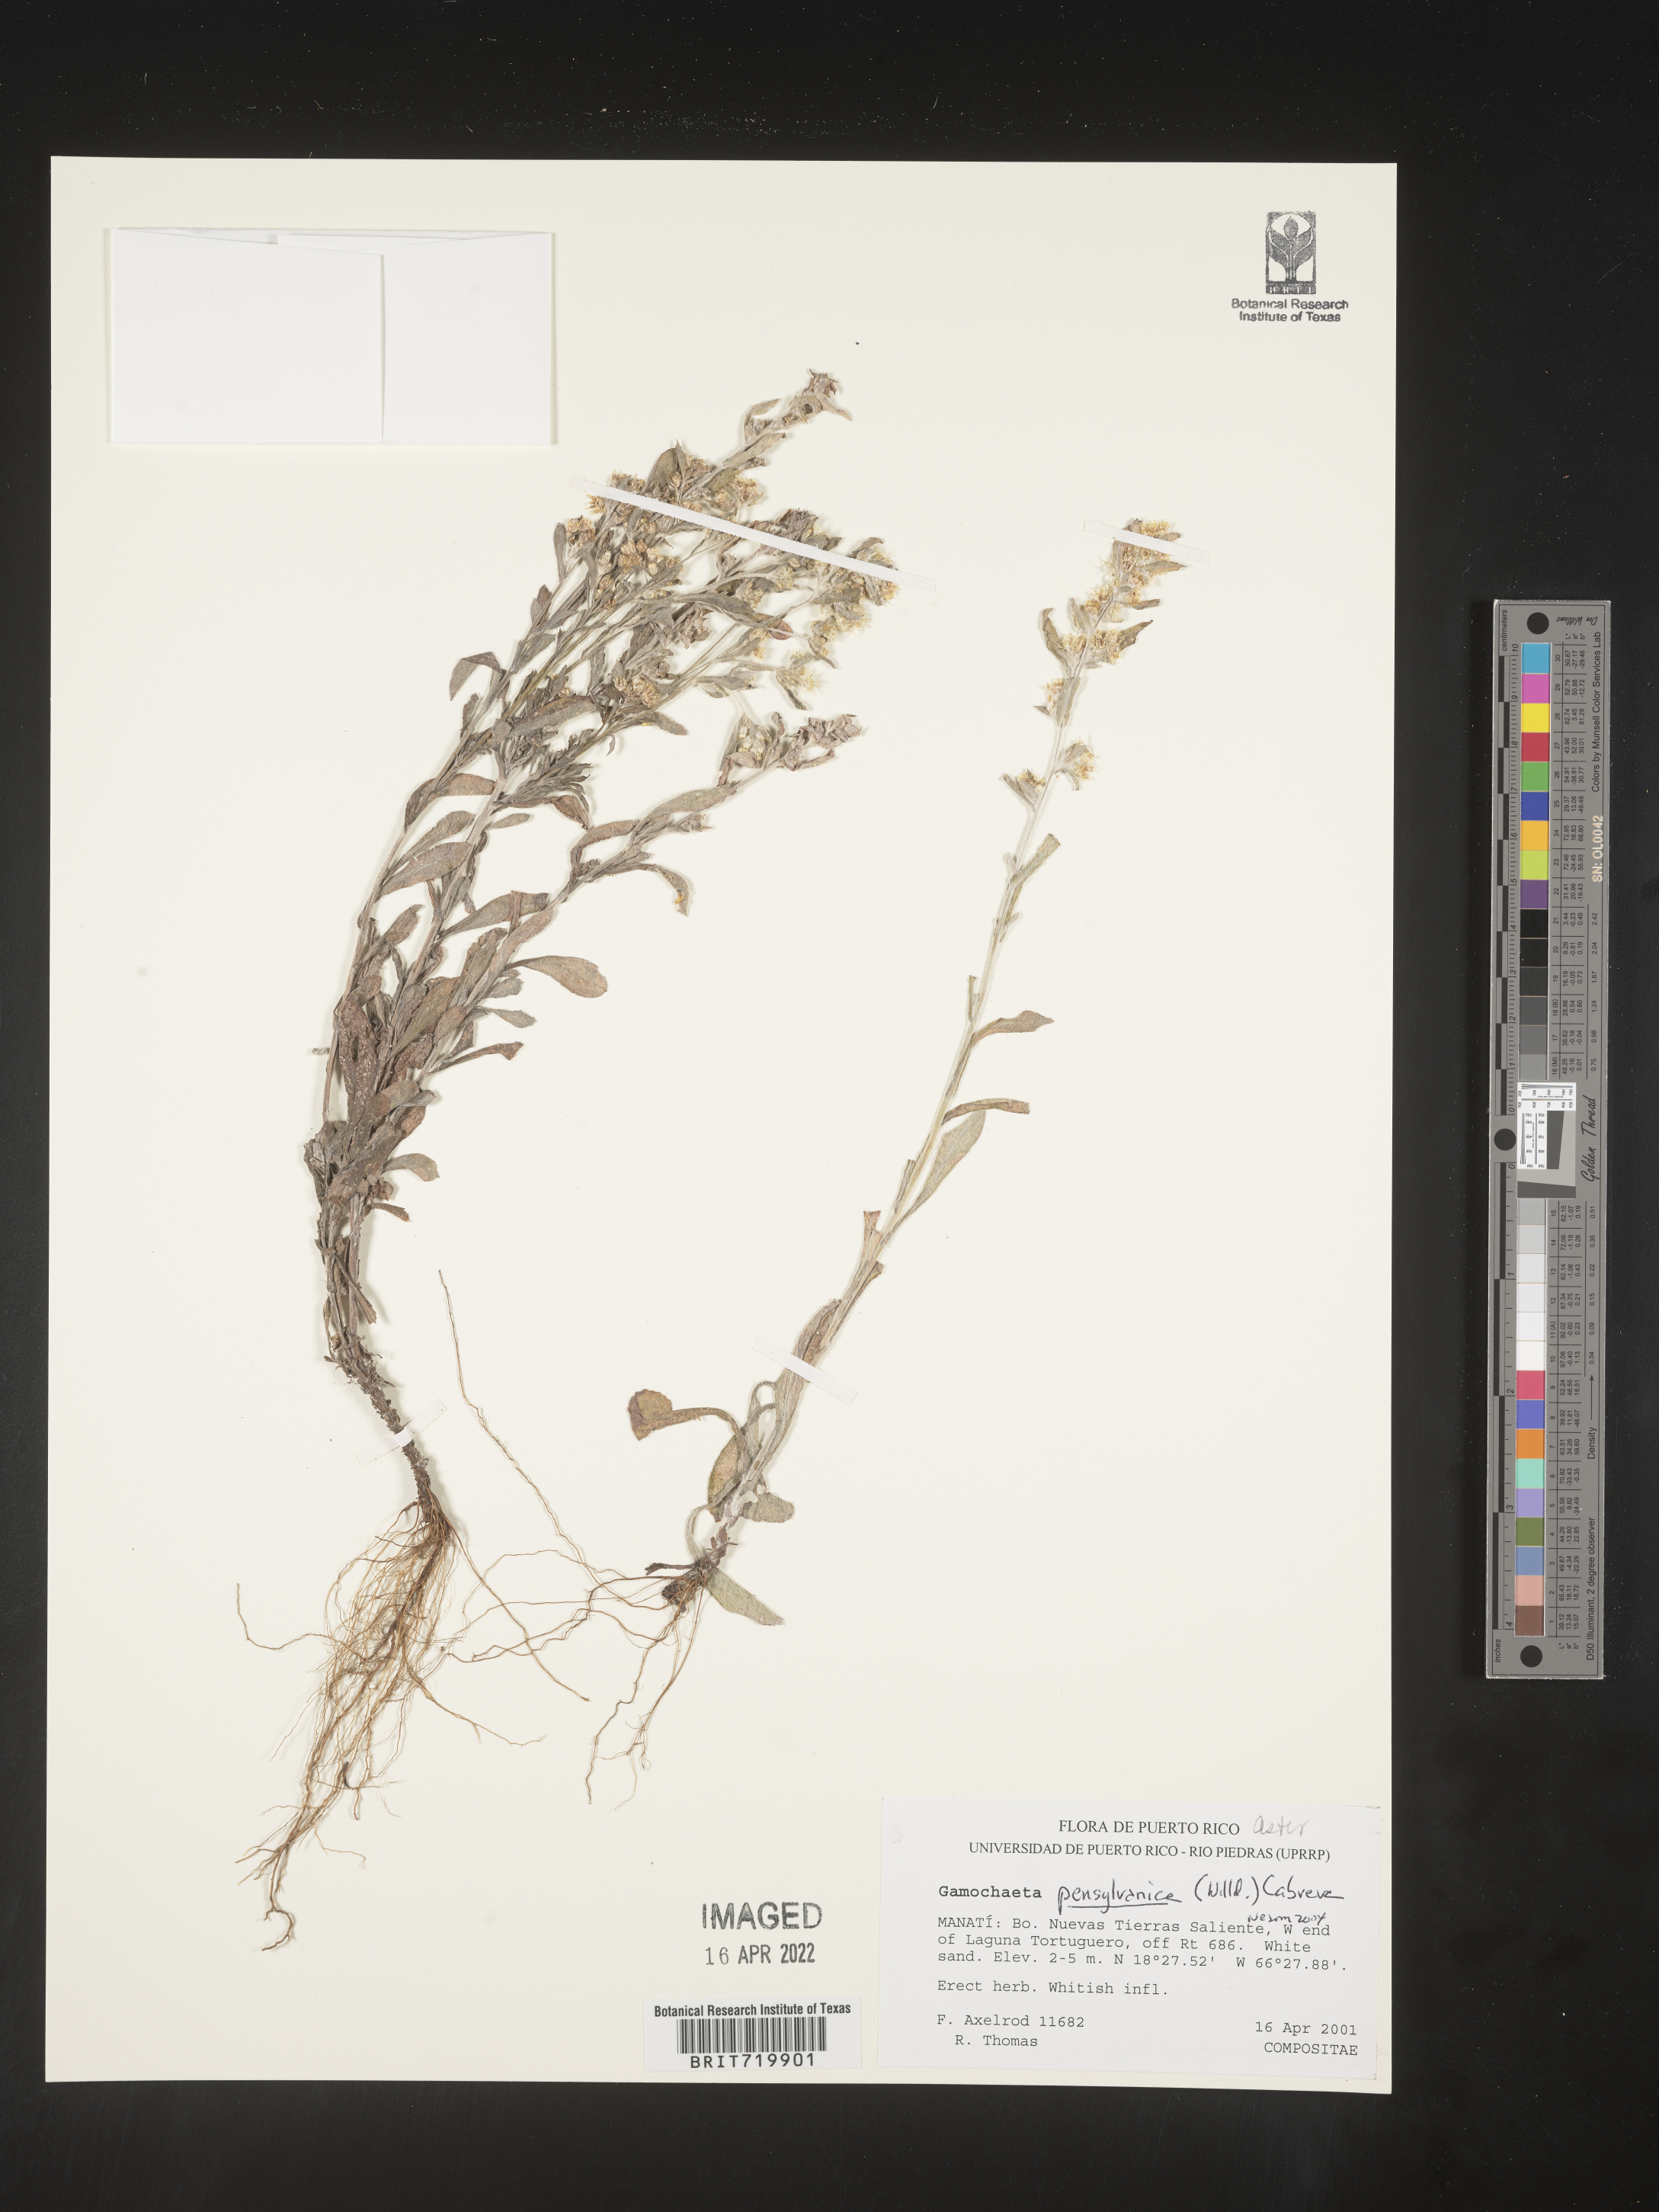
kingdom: Plantae
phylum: Tracheophyta
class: Magnoliopsida
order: Asterales
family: Asteraceae
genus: Gamochaeta
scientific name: Gamochaeta
